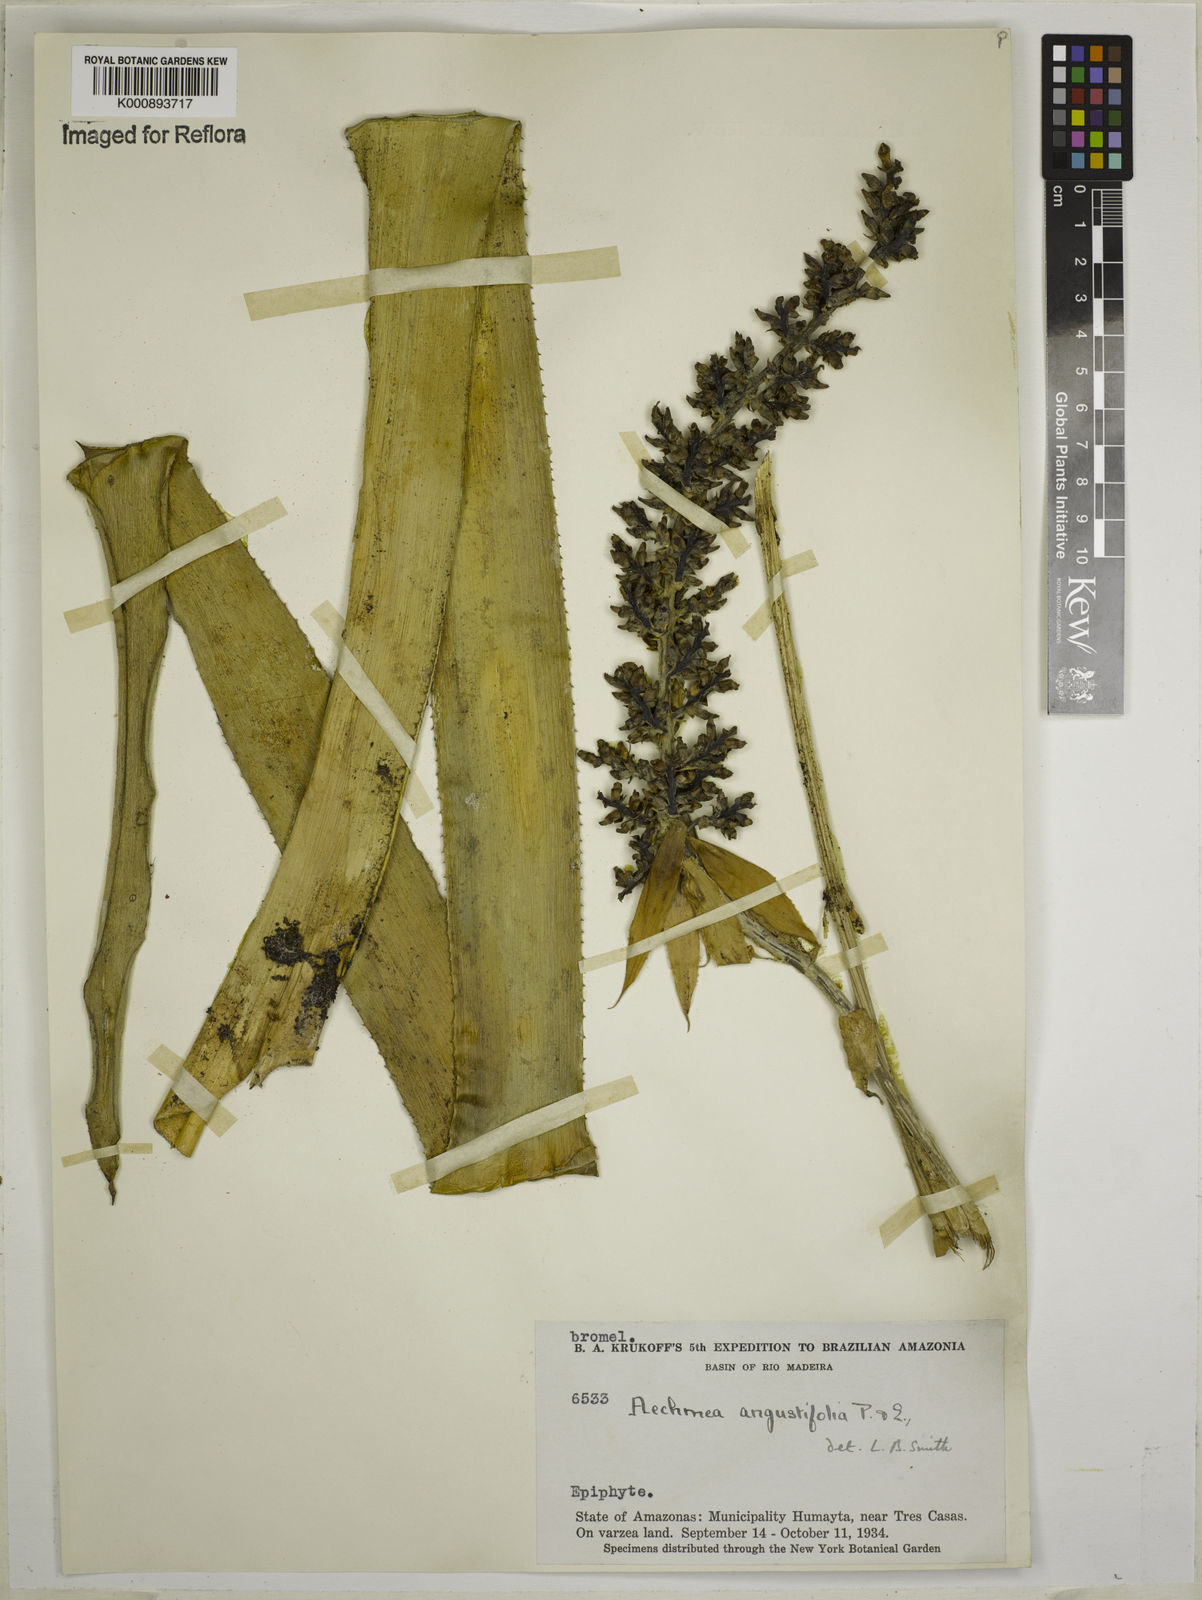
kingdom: Plantae
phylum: Tracheophyta
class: Liliopsida
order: Poales
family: Bromeliaceae
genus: Aechmea
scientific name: Aechmea angustifolia
